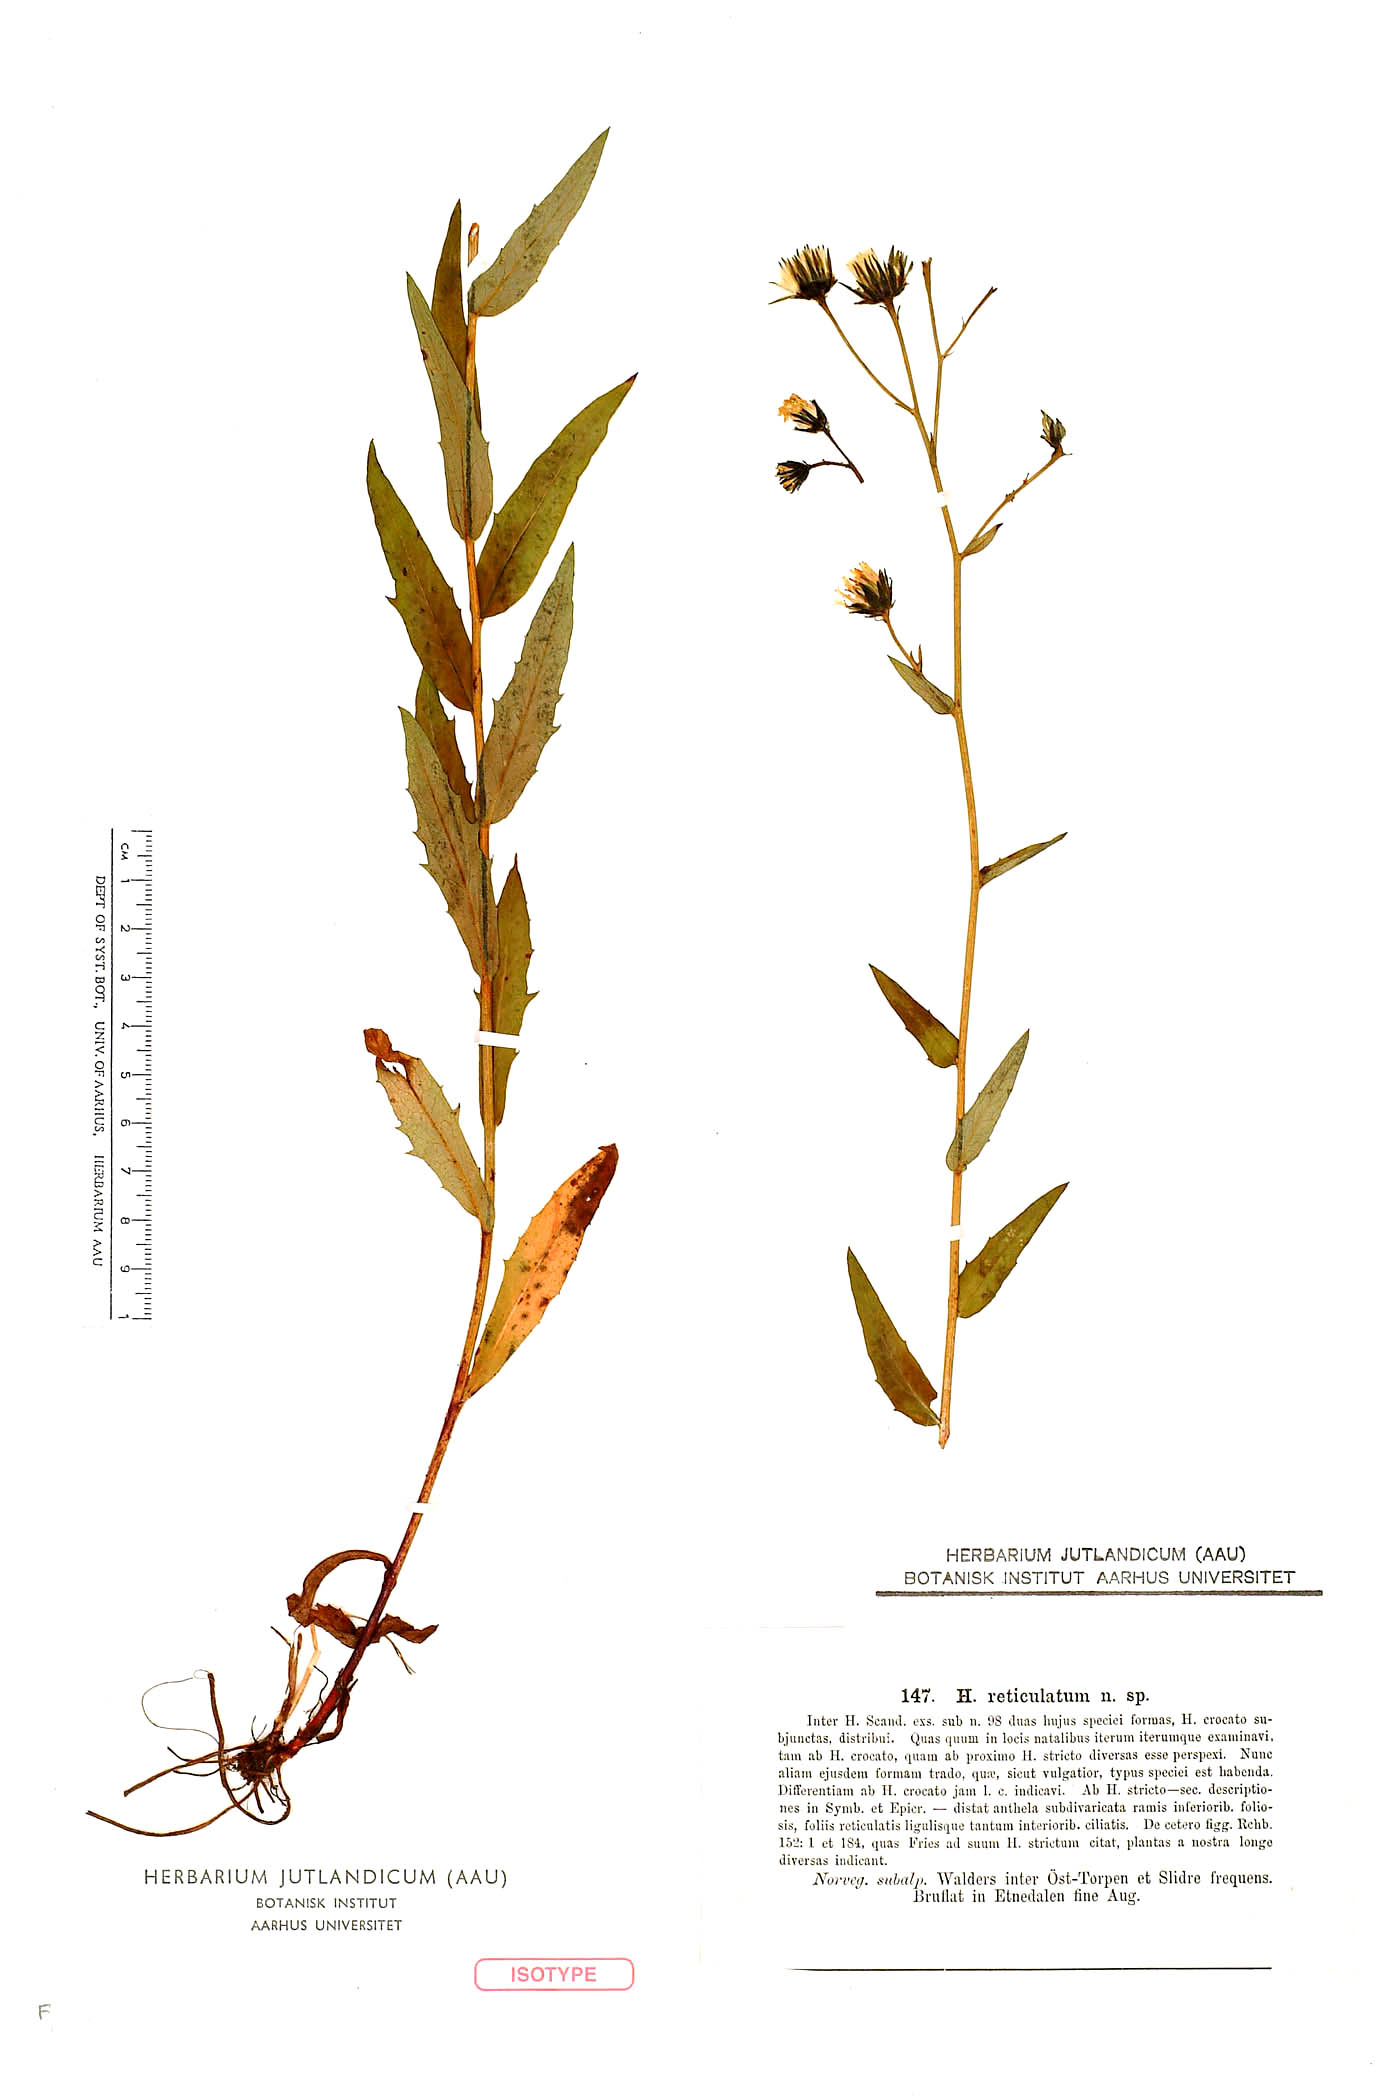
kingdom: Plantae
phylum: Tracheophyta
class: Magnoliopsida
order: Asterales
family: Asteraceae
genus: Hieracium
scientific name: Hieracium reticulatum
